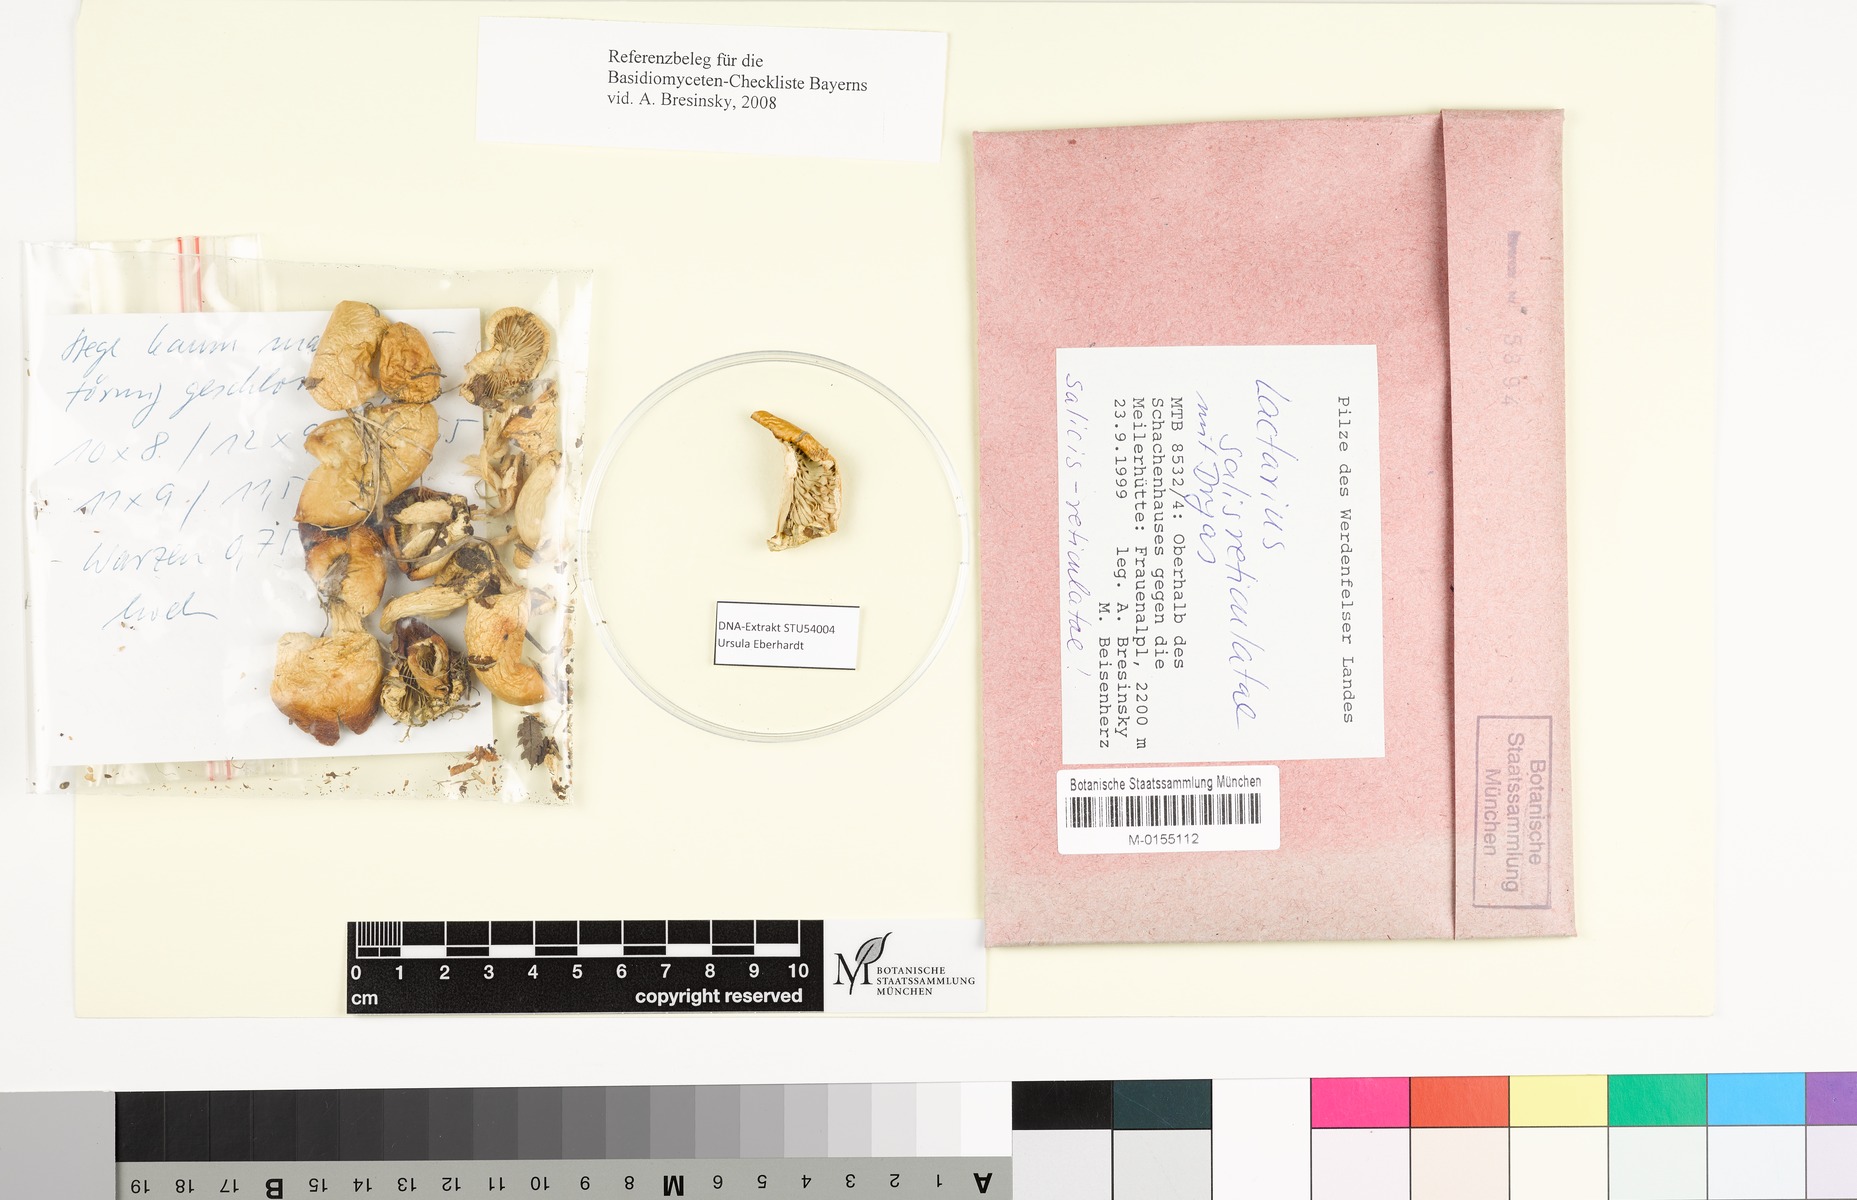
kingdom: Fungi
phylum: Basidiomycota
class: Agaricomycetes
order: Russulales
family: Russulaceae
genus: Lactarius
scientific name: Lactarius salicis-reticulatae
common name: Mountain milkcap
